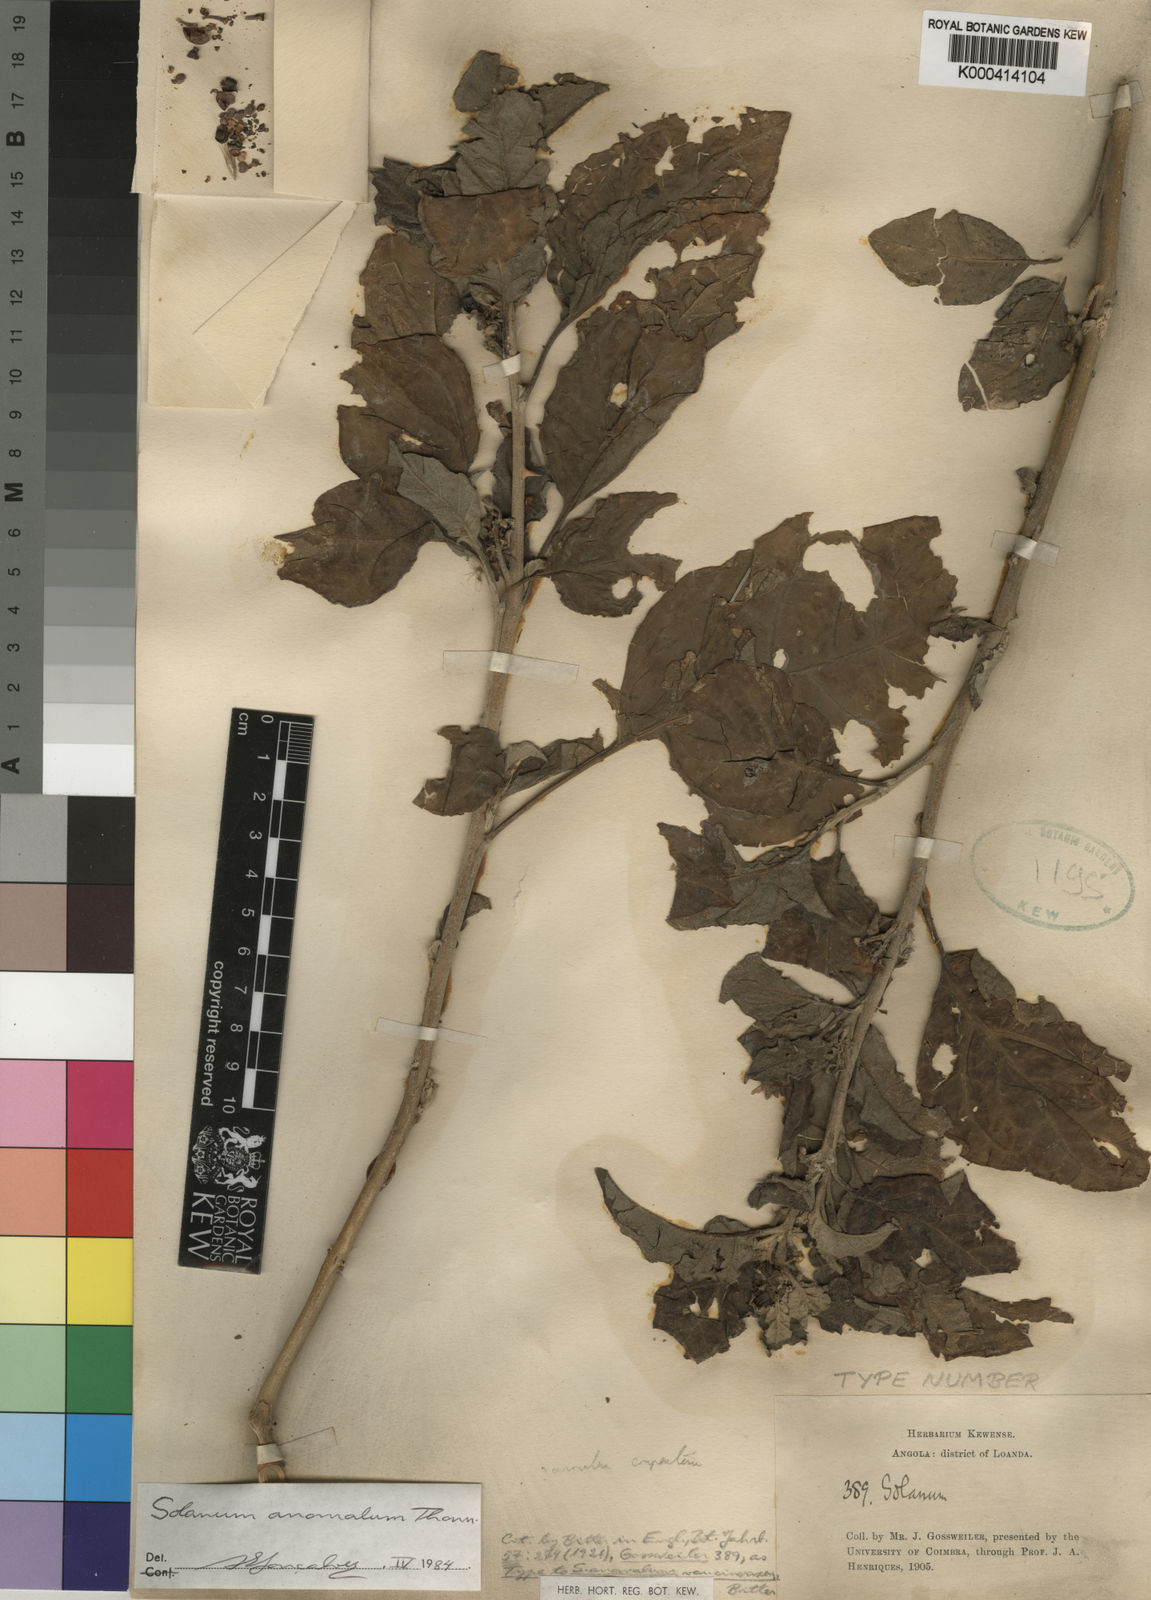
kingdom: Plantae
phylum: Tracheophyta
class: Magnoliopsida
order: Solanales
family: Solanaceae
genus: Solanum
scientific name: Solanum anomalum
